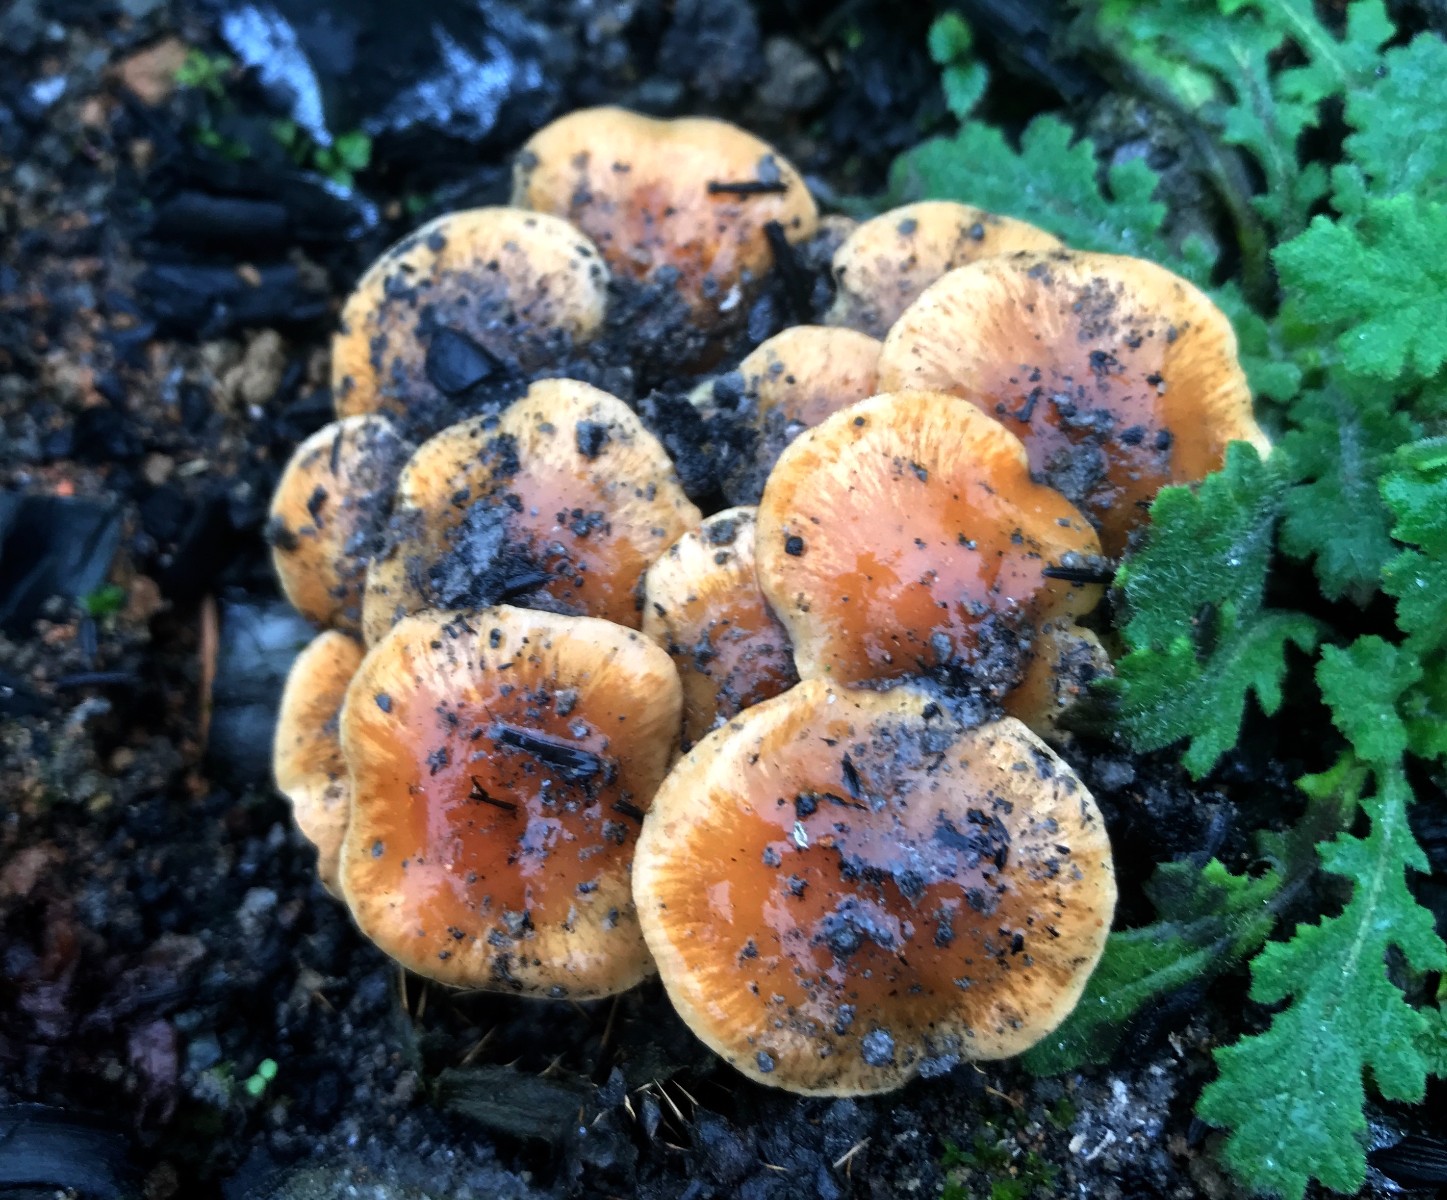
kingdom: Fungi
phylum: Basidiomycota
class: Agaricomycetes
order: Agaricales
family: Strophariaceae
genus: Pholiota
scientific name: Pholiota carbonaria
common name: kul-skælhat
